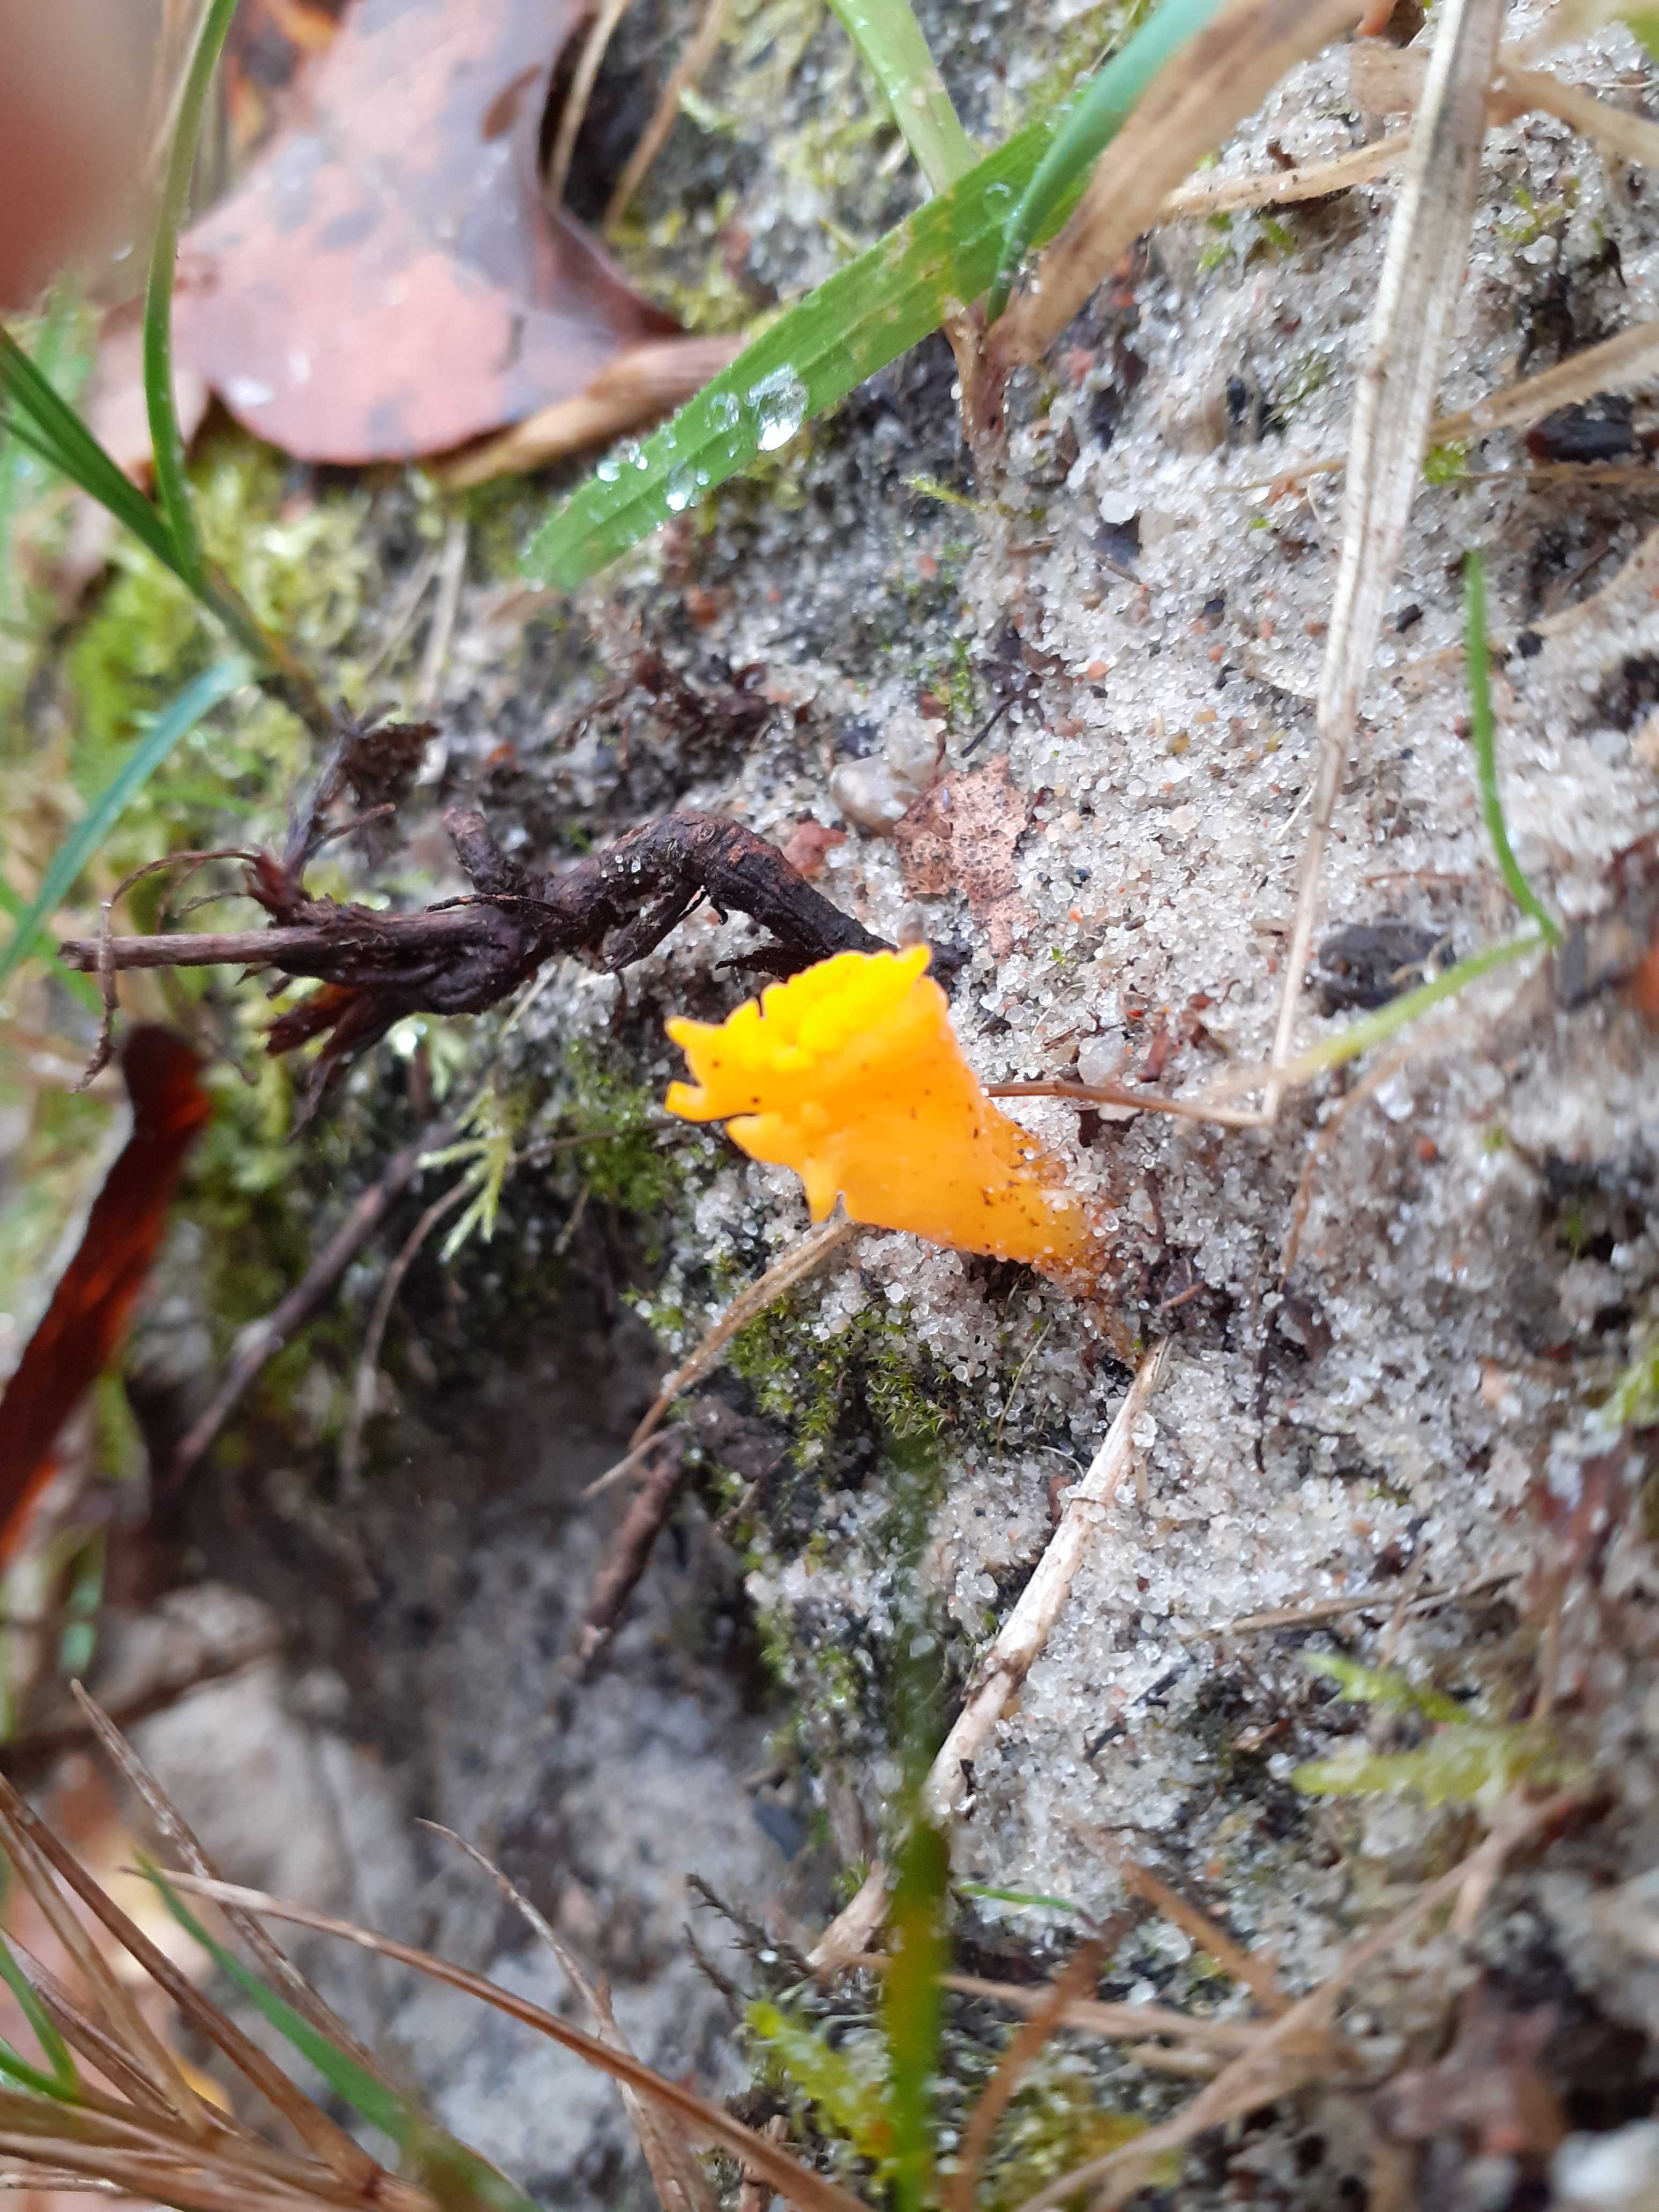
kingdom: Fungi
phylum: Basidiomycota
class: Dacrymycetes
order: Dacrymycetales
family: Dacrymycetaceae
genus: Calocera
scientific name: Calocera viscosa
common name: almindelig guldgaffel
